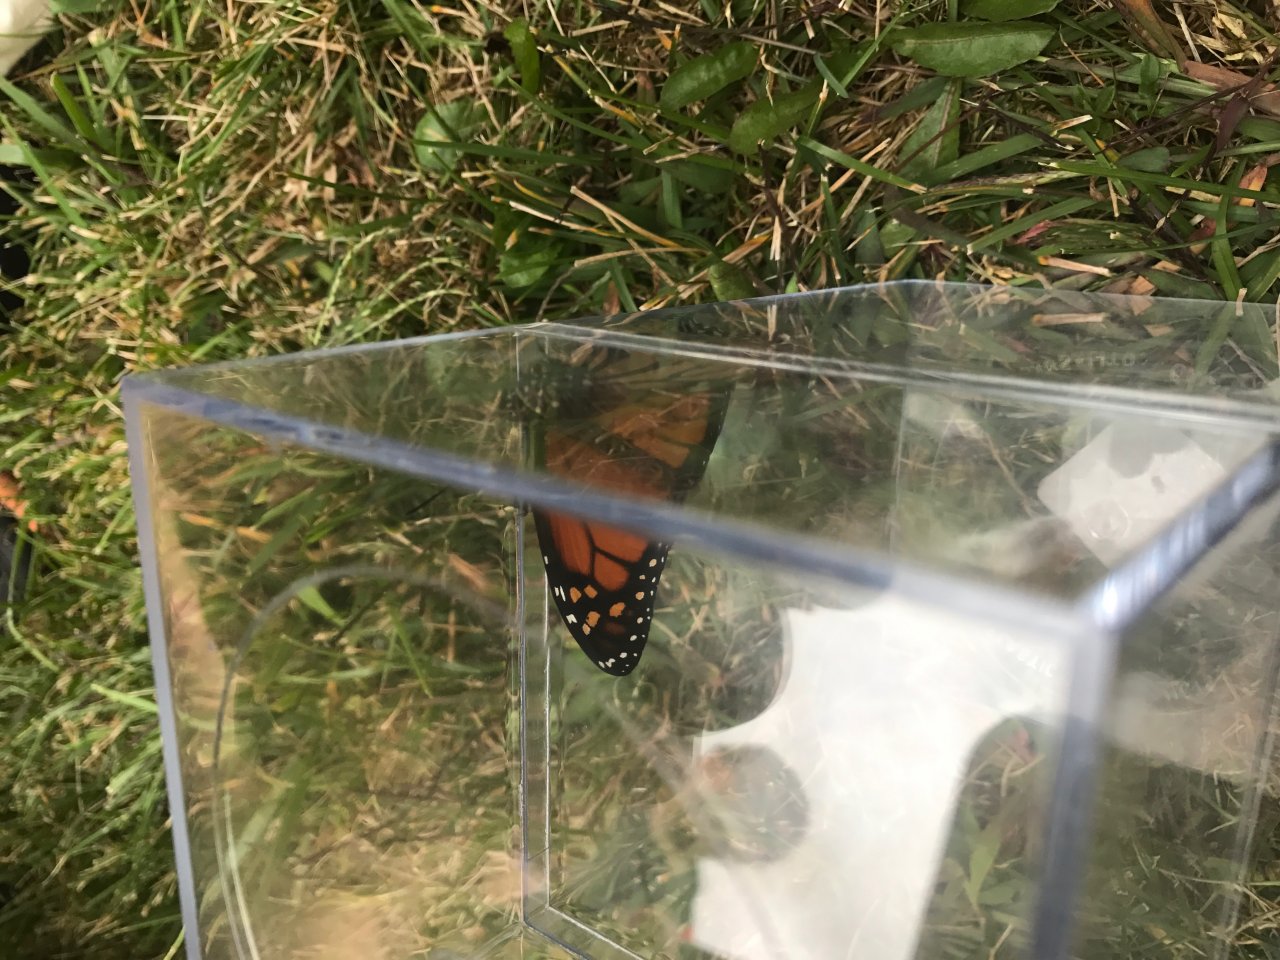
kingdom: Animalia
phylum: Arthropoda
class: Insecta
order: Lepidoptera
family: Nymphalidae
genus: Danaus
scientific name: Danaus plexippus
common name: Monarch
